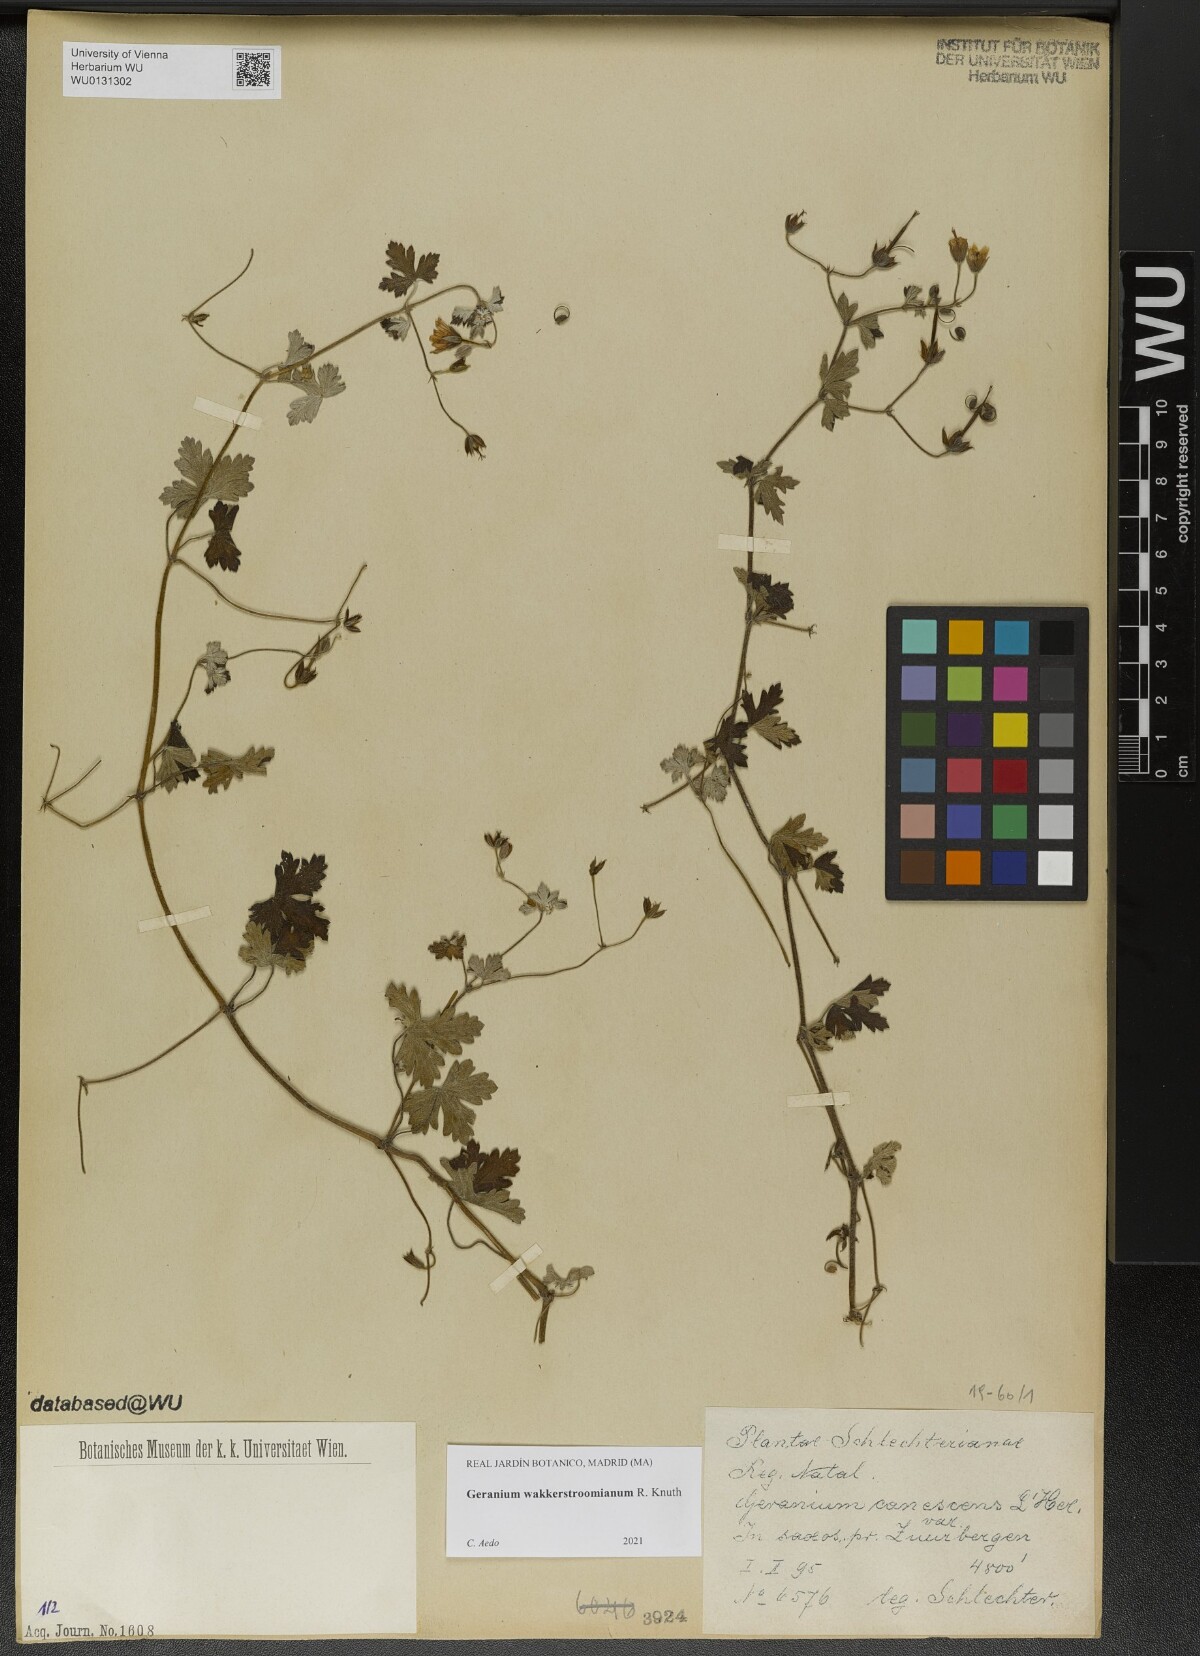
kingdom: Plantae
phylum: Tracheophyta
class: Magnoliopsida
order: Geraniales
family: Geraniaceae
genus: Geranium
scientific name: Geranium wakkerstroomianum
